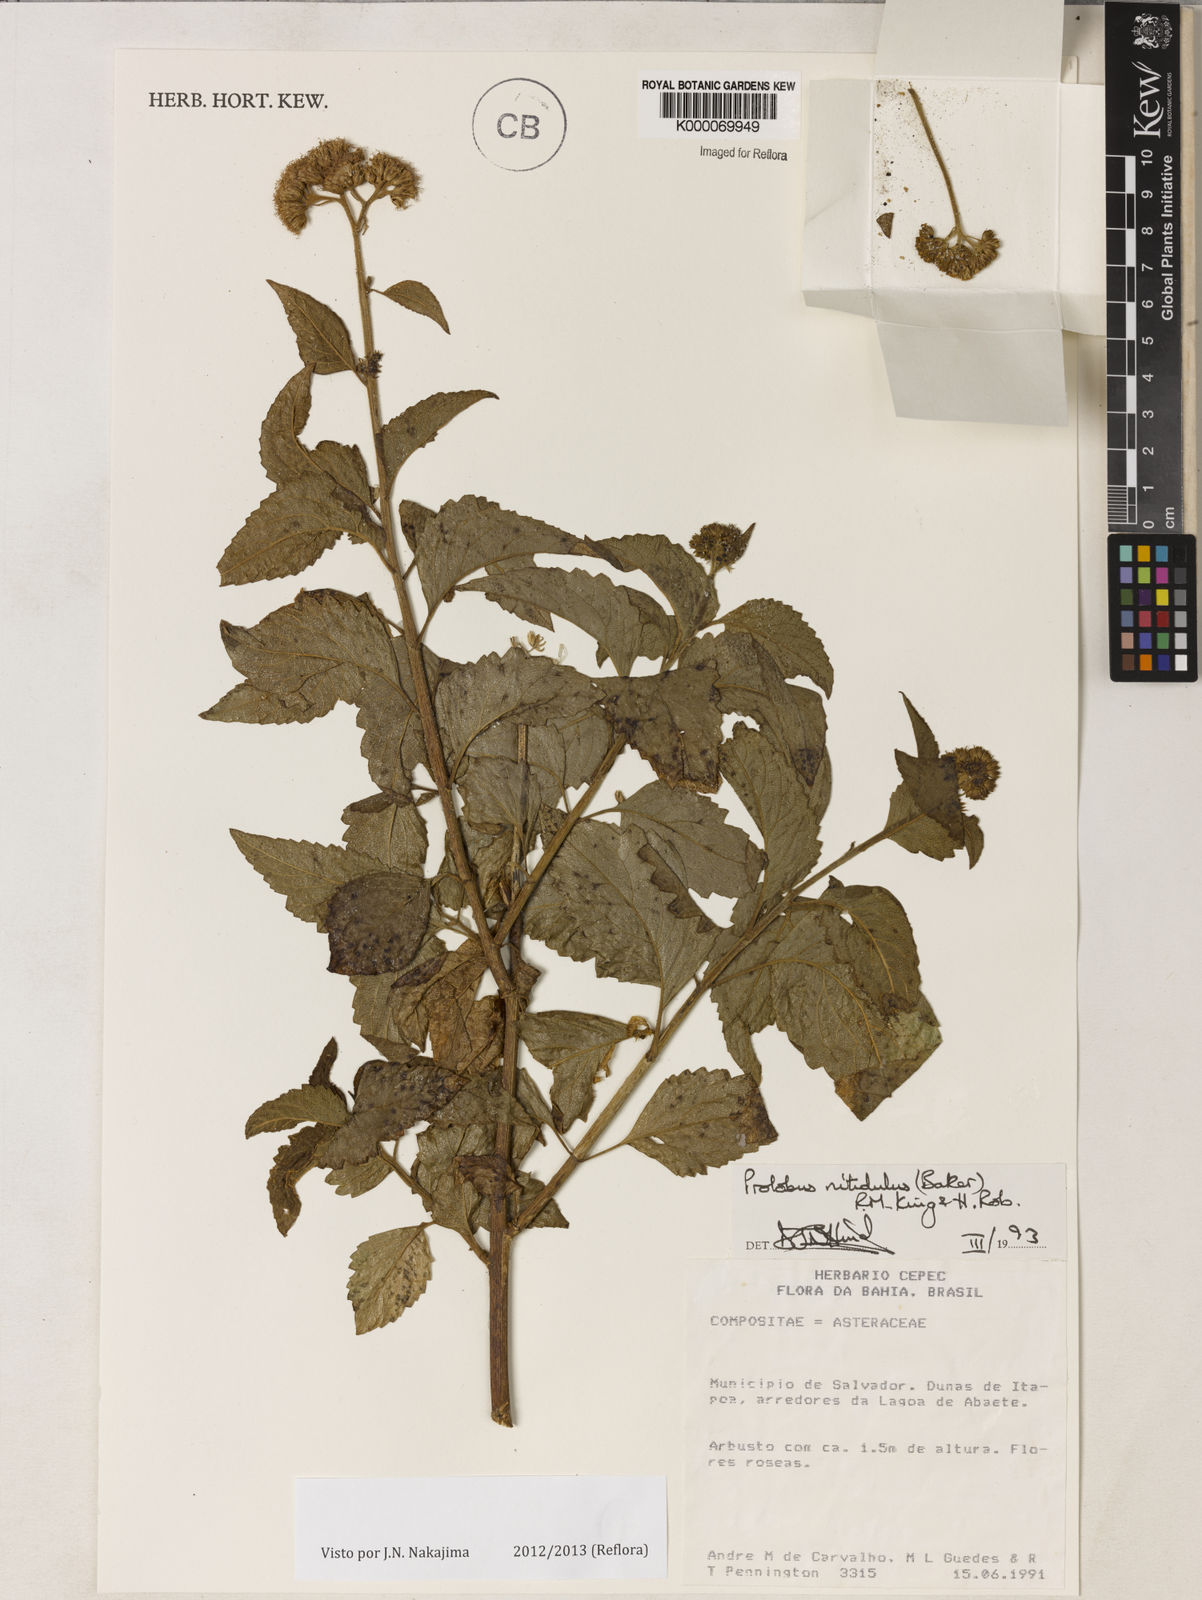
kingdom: Plantae
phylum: Tracheophyta
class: Magnoliopsida
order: Asterales
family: Asteraceae
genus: Prolobus
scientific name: Prolobus nitidulus
